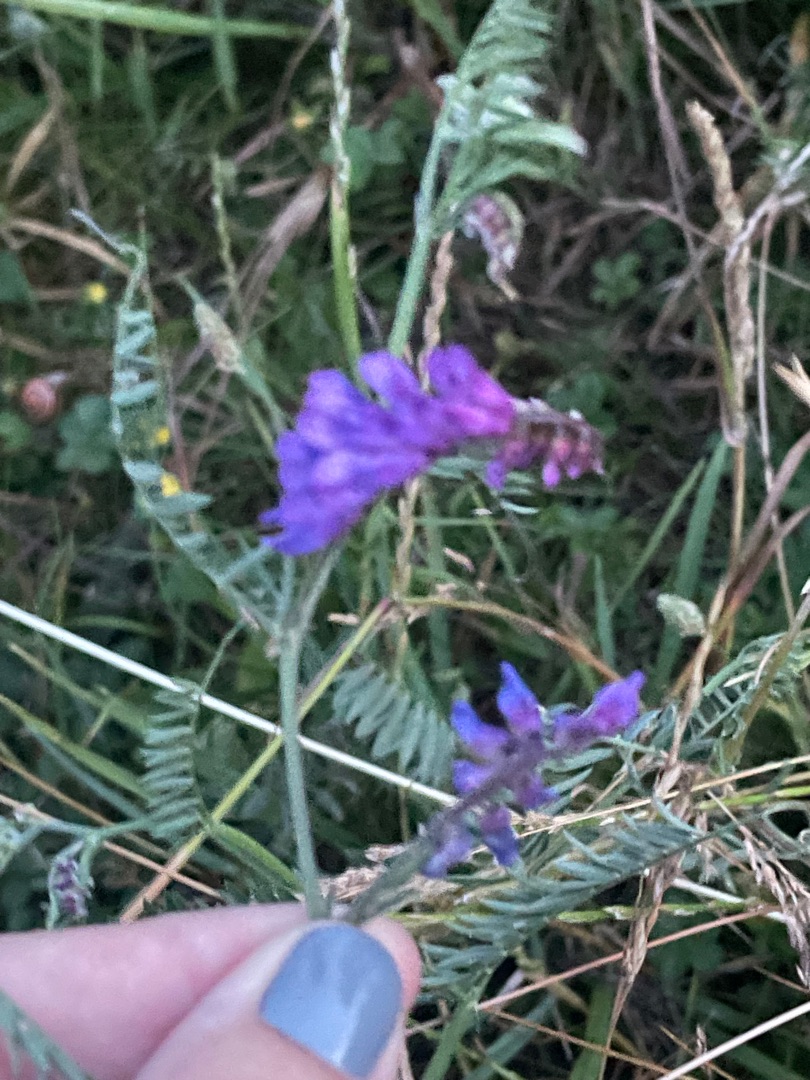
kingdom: Plantae
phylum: Tracheophyta
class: Magnoliopsida
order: Fabales
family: Fabaceae
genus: Vicia
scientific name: Vicia cracca
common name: Muse-vikke
